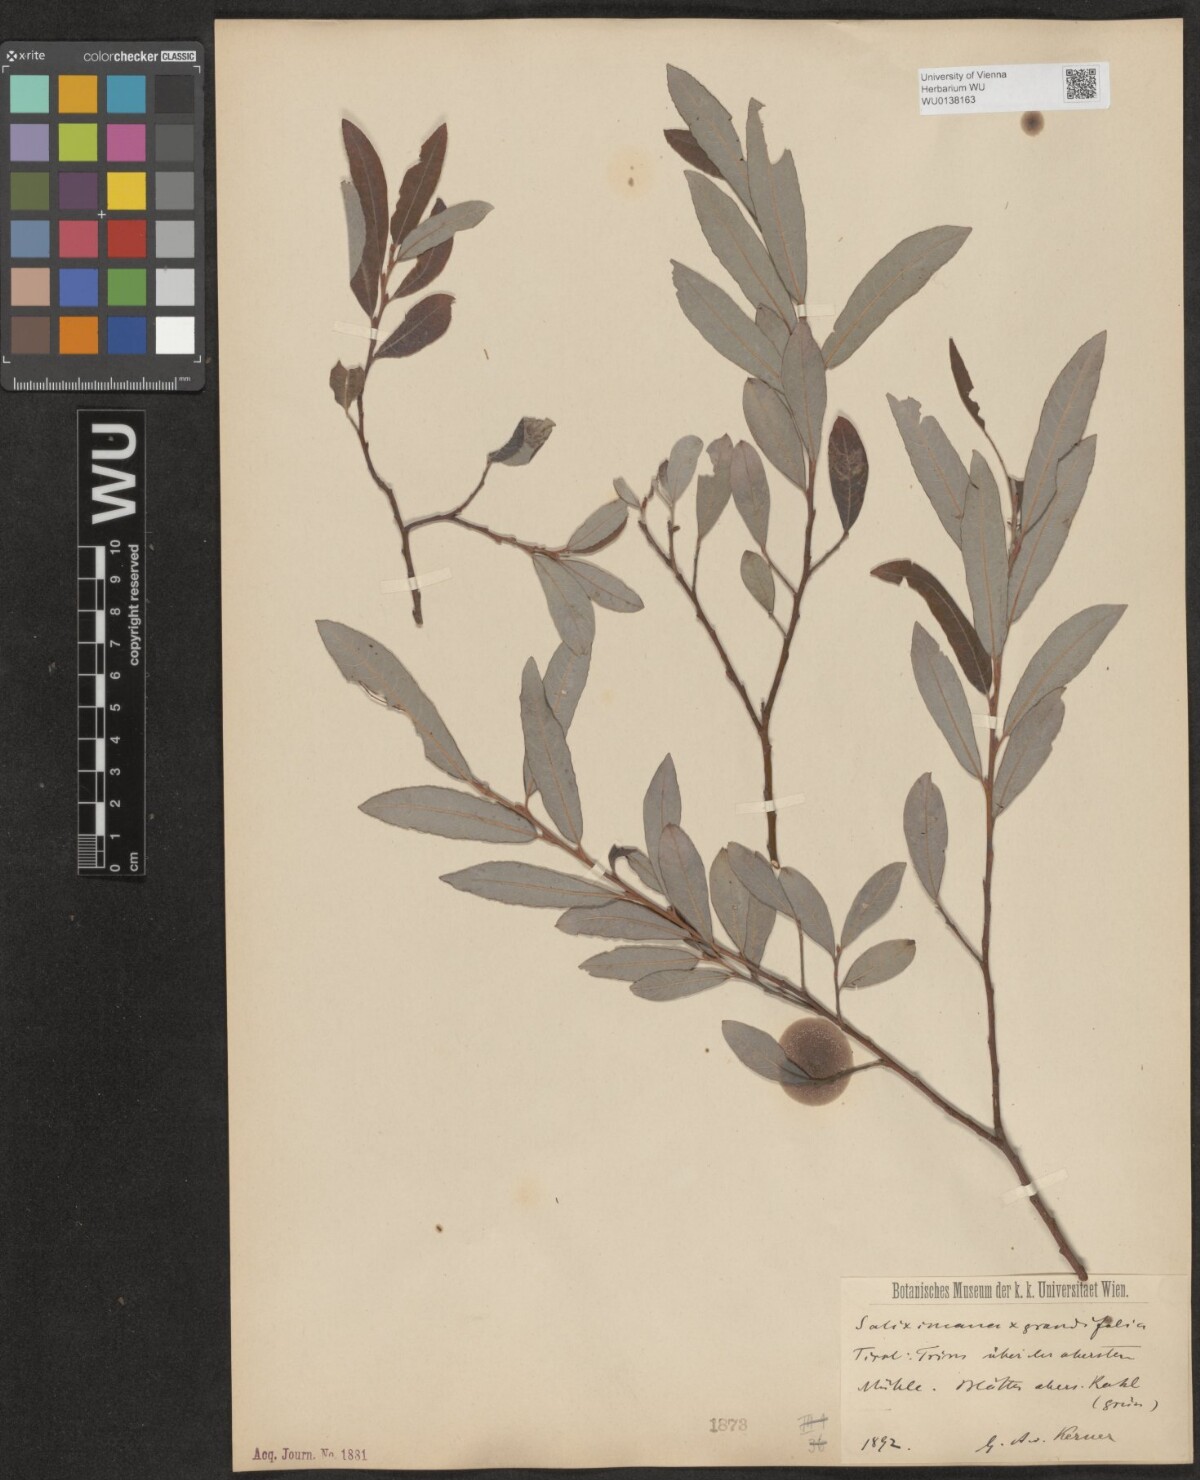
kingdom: Plantae
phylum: Tracheophyta
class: Magnoliopsida
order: Malpighiales
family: Salicaceae
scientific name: Salicaceae
